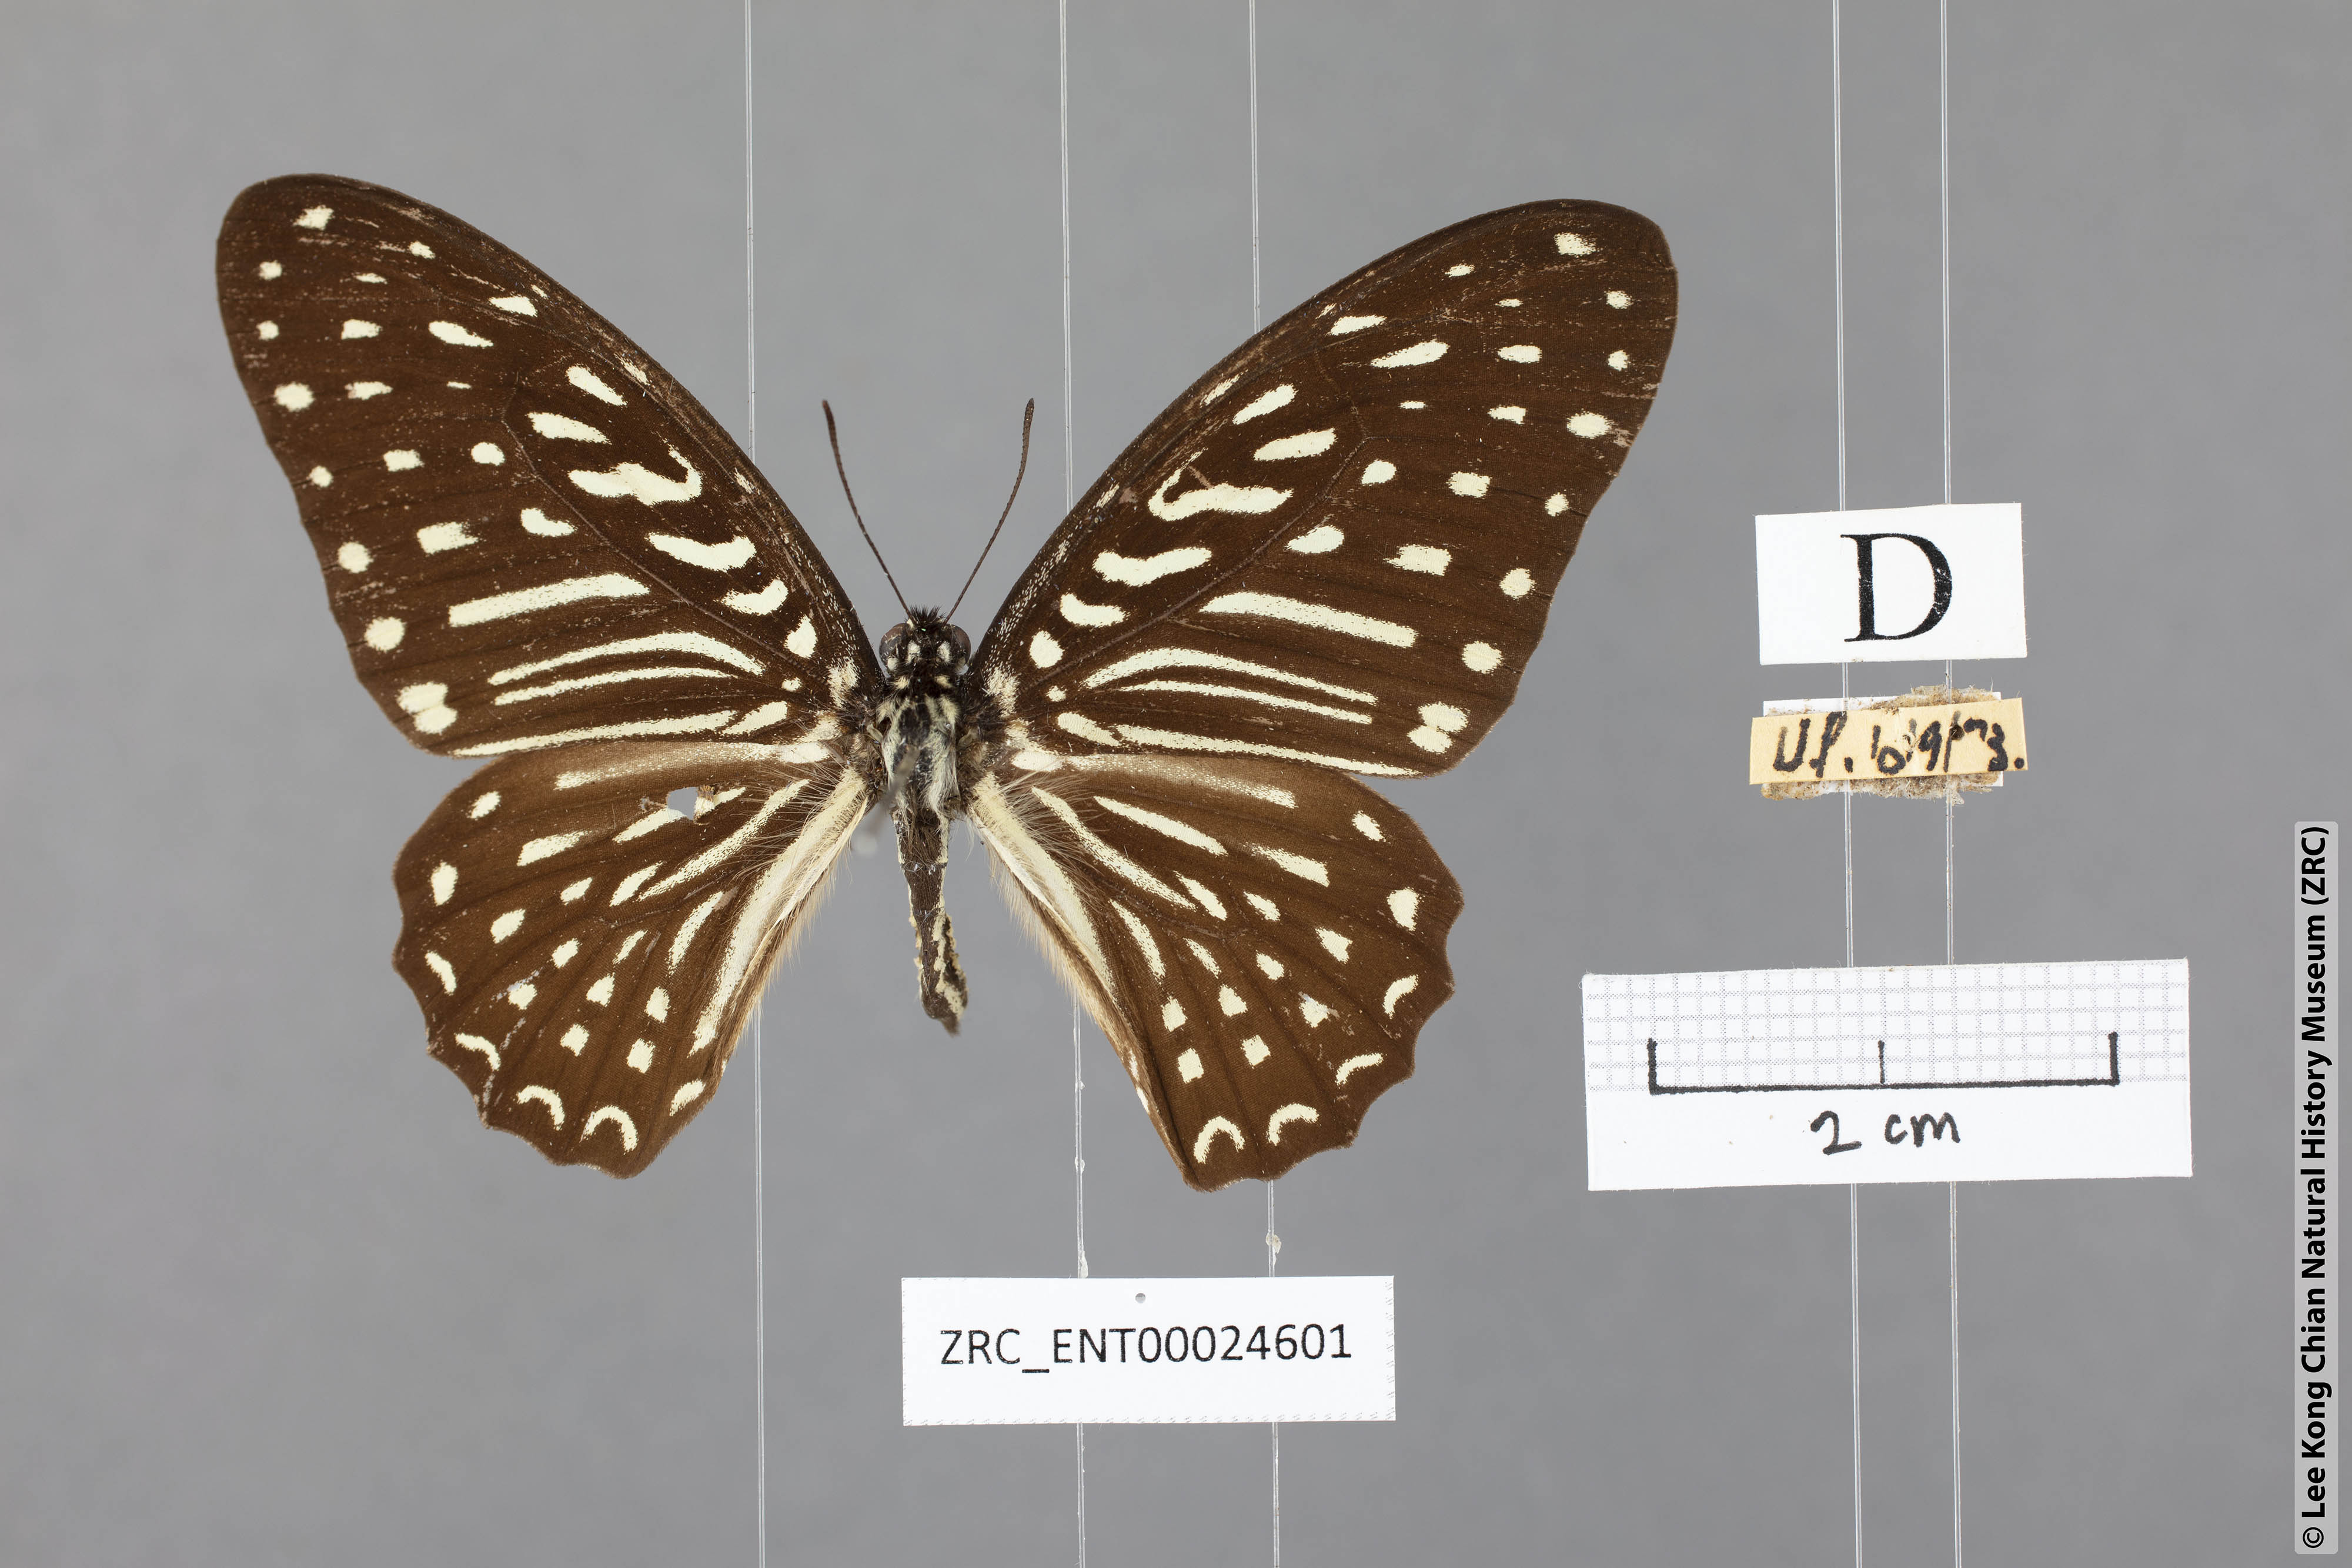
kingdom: Animalia
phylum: Arthropoda
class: Insecta
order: Lepidoptera
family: Papilionidae
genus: Graphium
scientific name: Graphium megarus
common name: Spotted zebra
